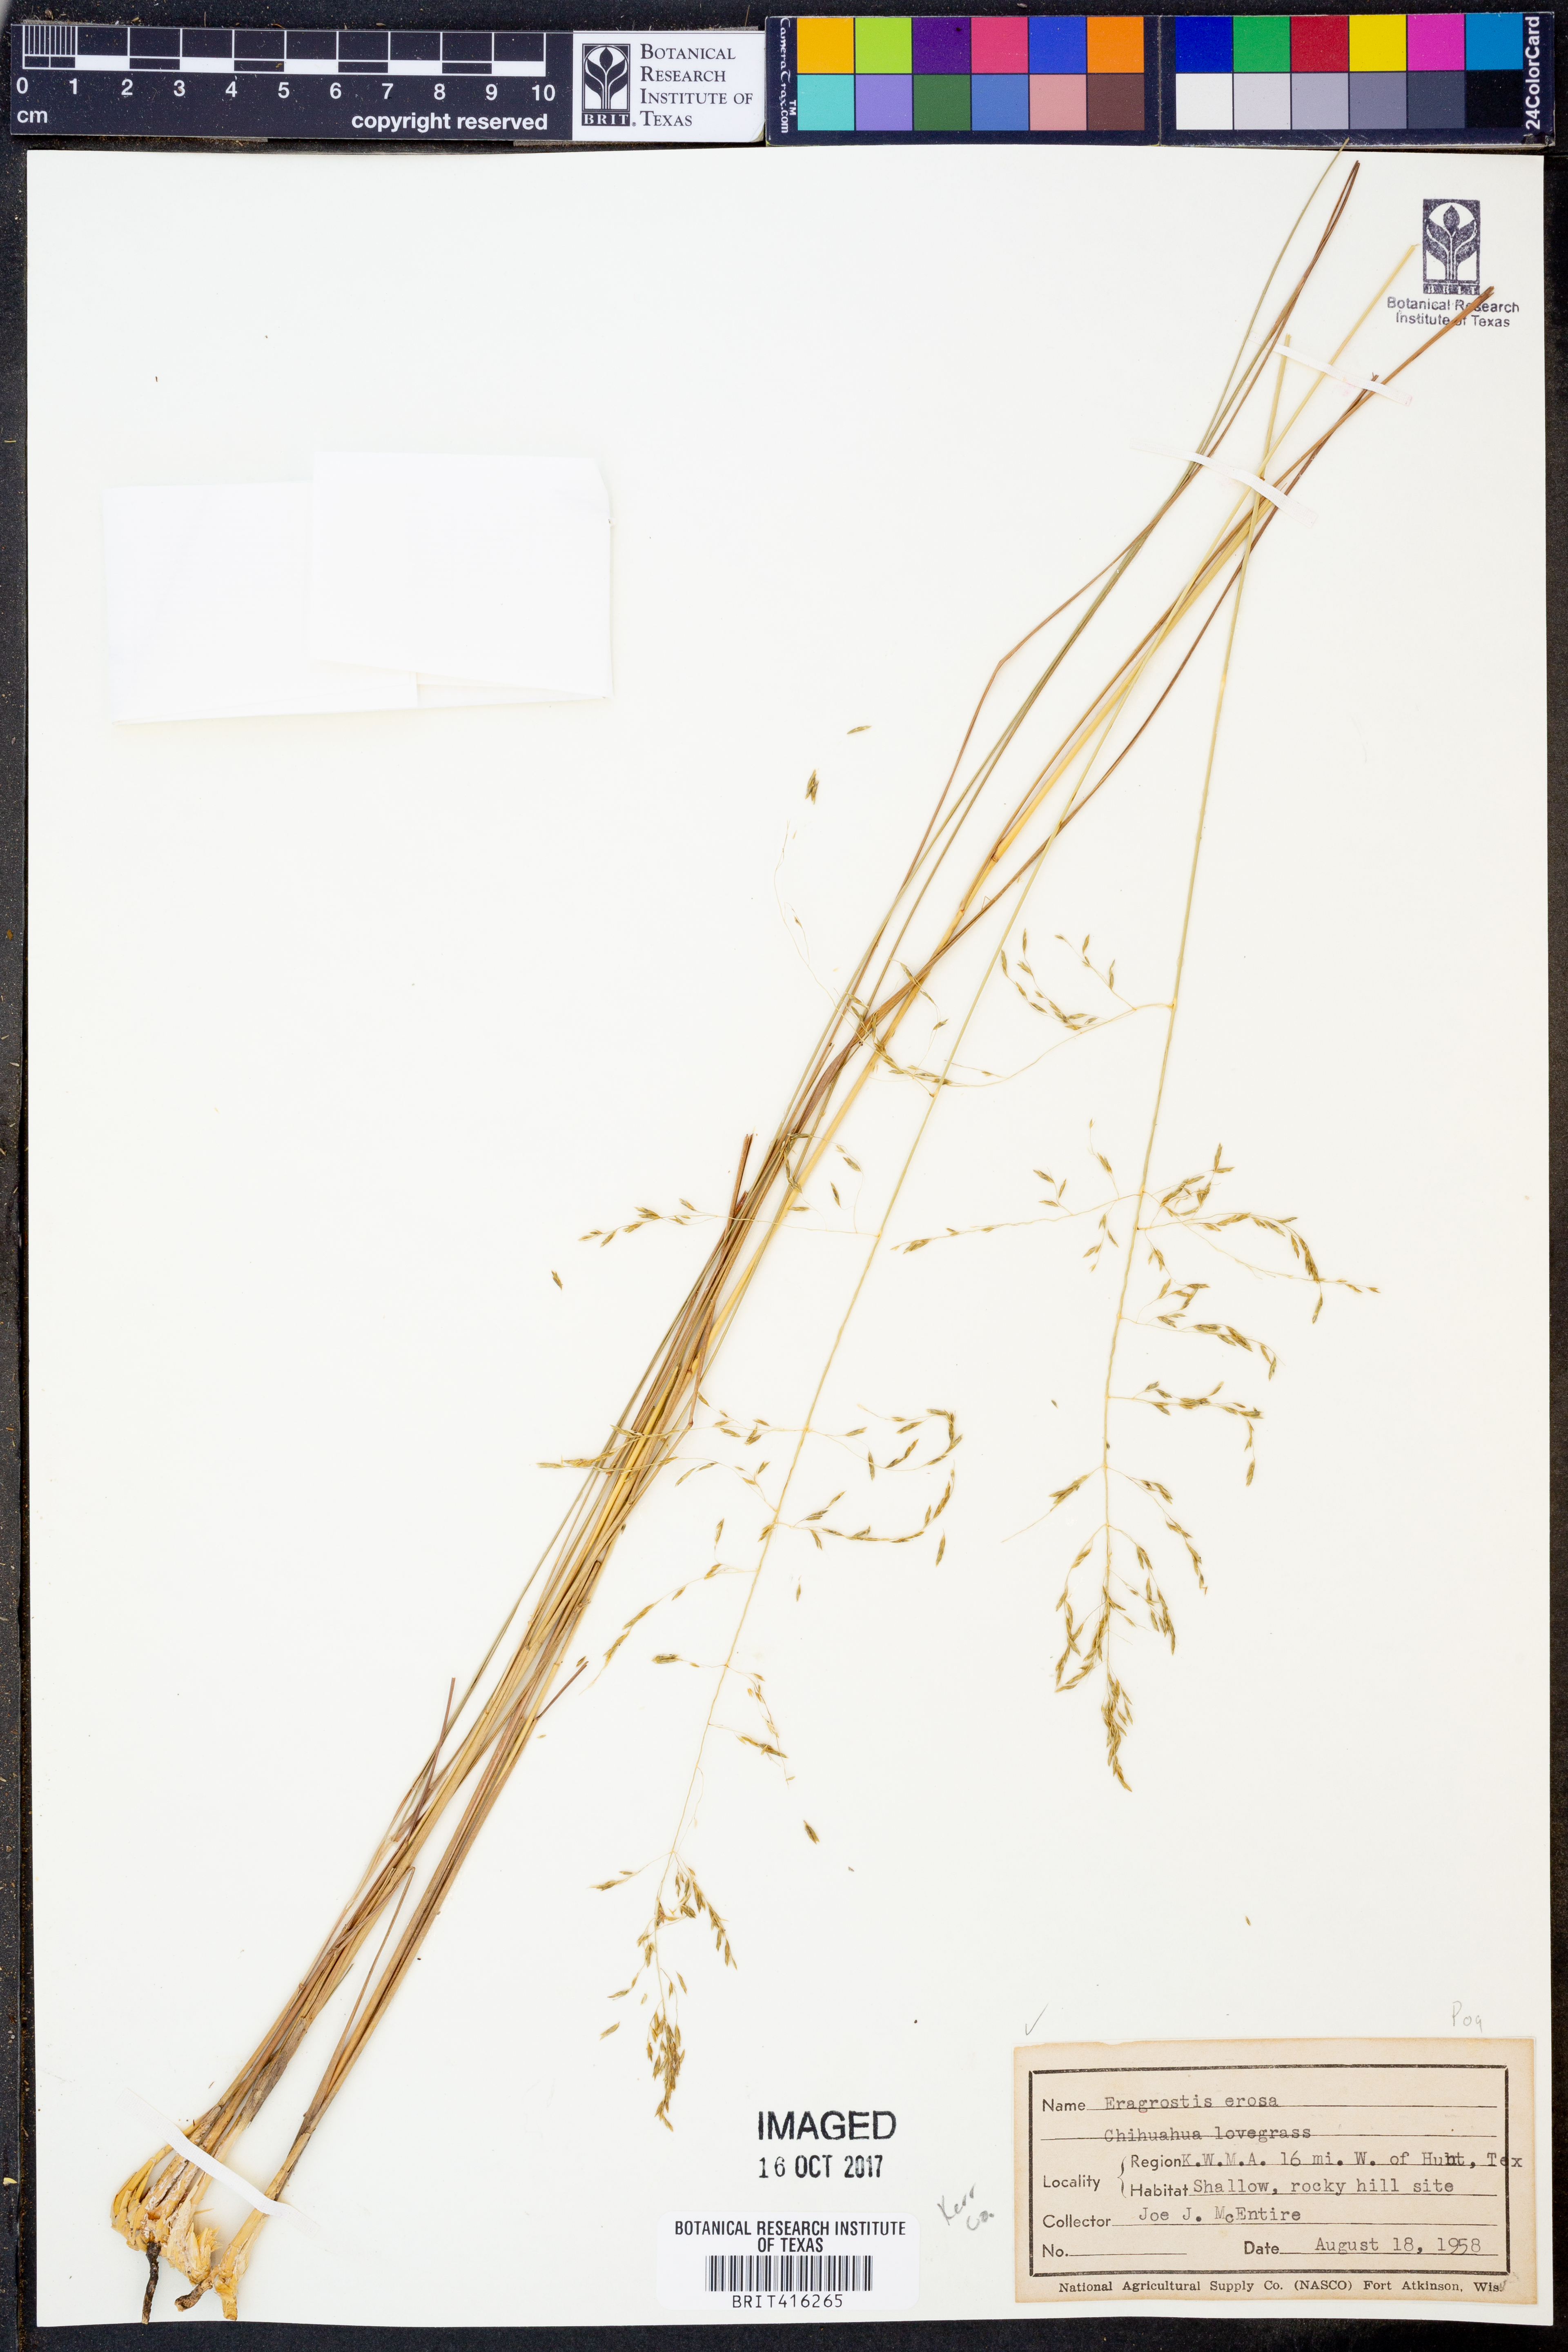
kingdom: Plantae
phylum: Tracheophyta
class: Liliopsida
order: Poales
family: Poaceae
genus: Eragrostis
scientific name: Eragrostis erosa
